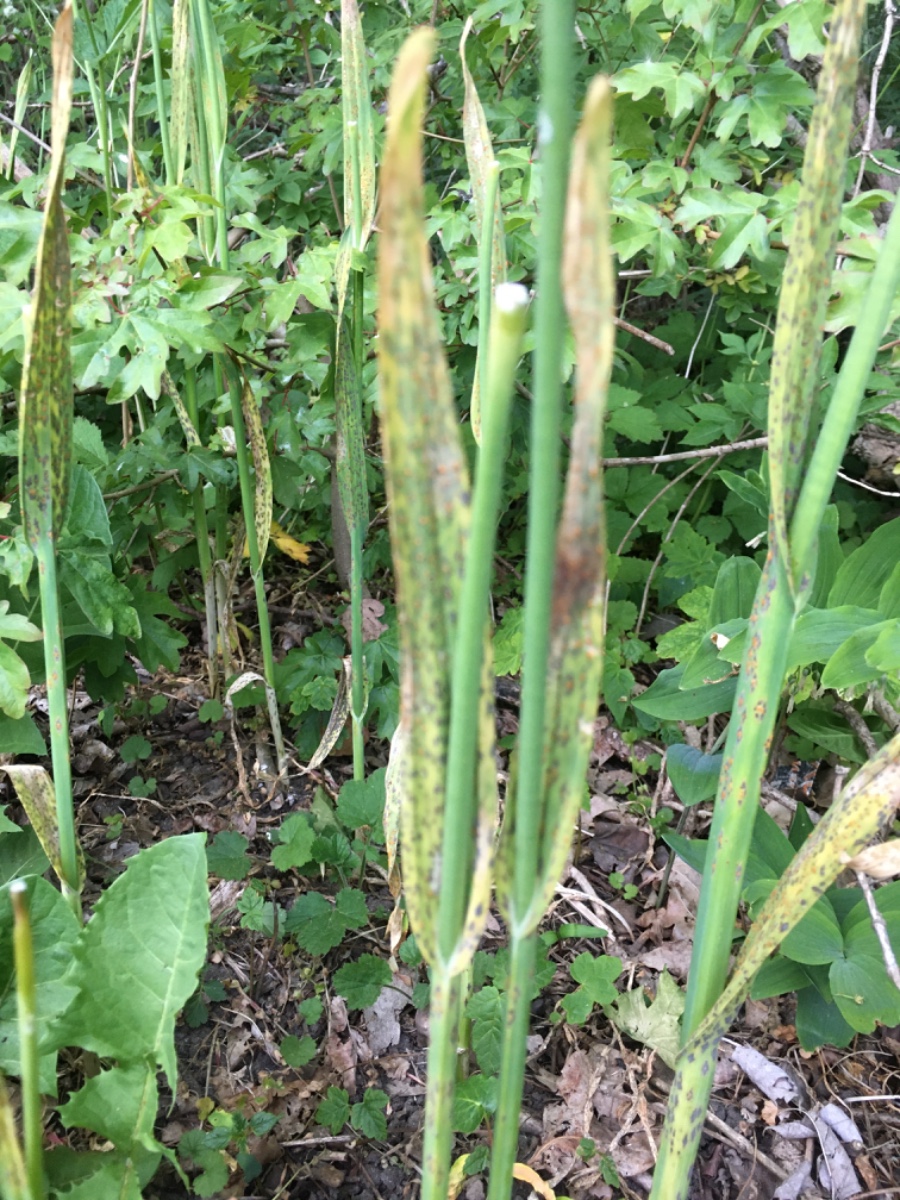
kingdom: Fungi
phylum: Basidiomycota
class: Pucciniomycetes
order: Pucciniales
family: Pucciniaceae
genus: Puccinia
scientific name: Puccinia porri
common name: Allium rust
